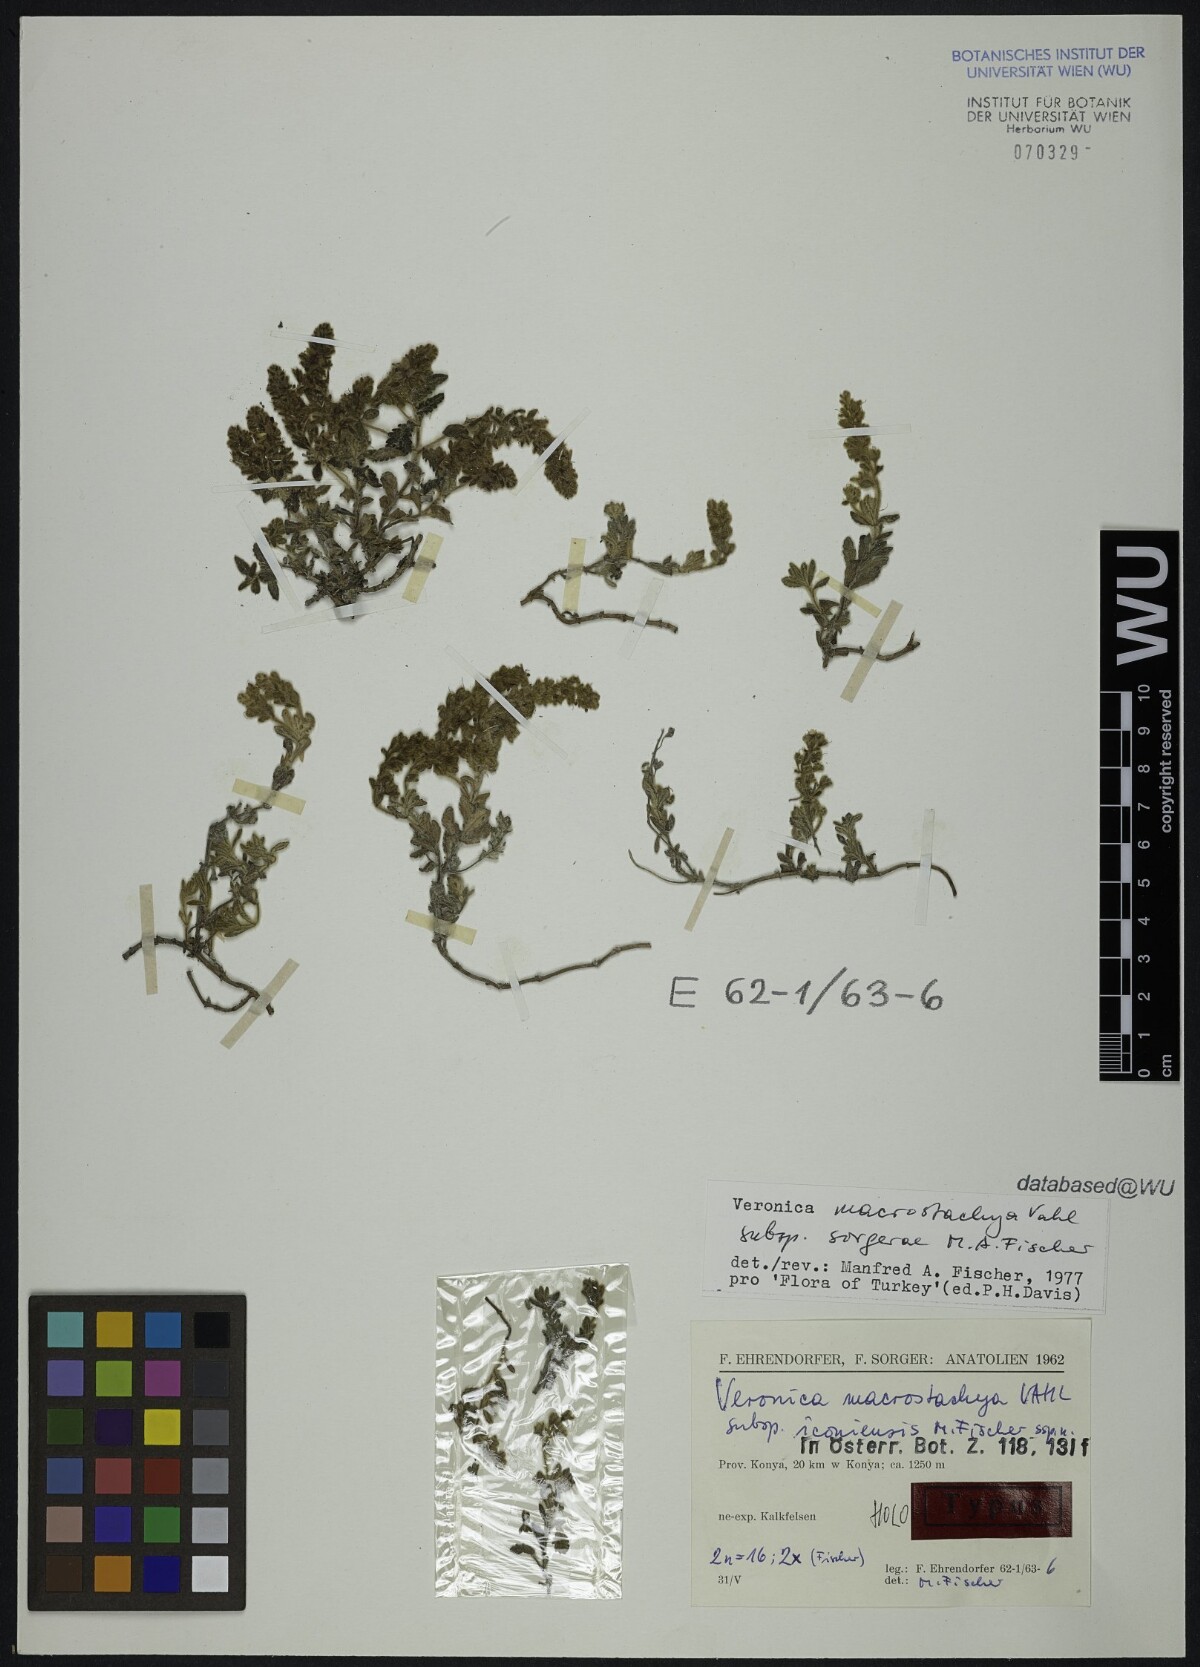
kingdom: Plantae
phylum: Tracheophyta
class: Magnoliopsida
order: Lamiales
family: Plantaginaceae
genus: Veronica
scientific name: Veronica macrostachya
